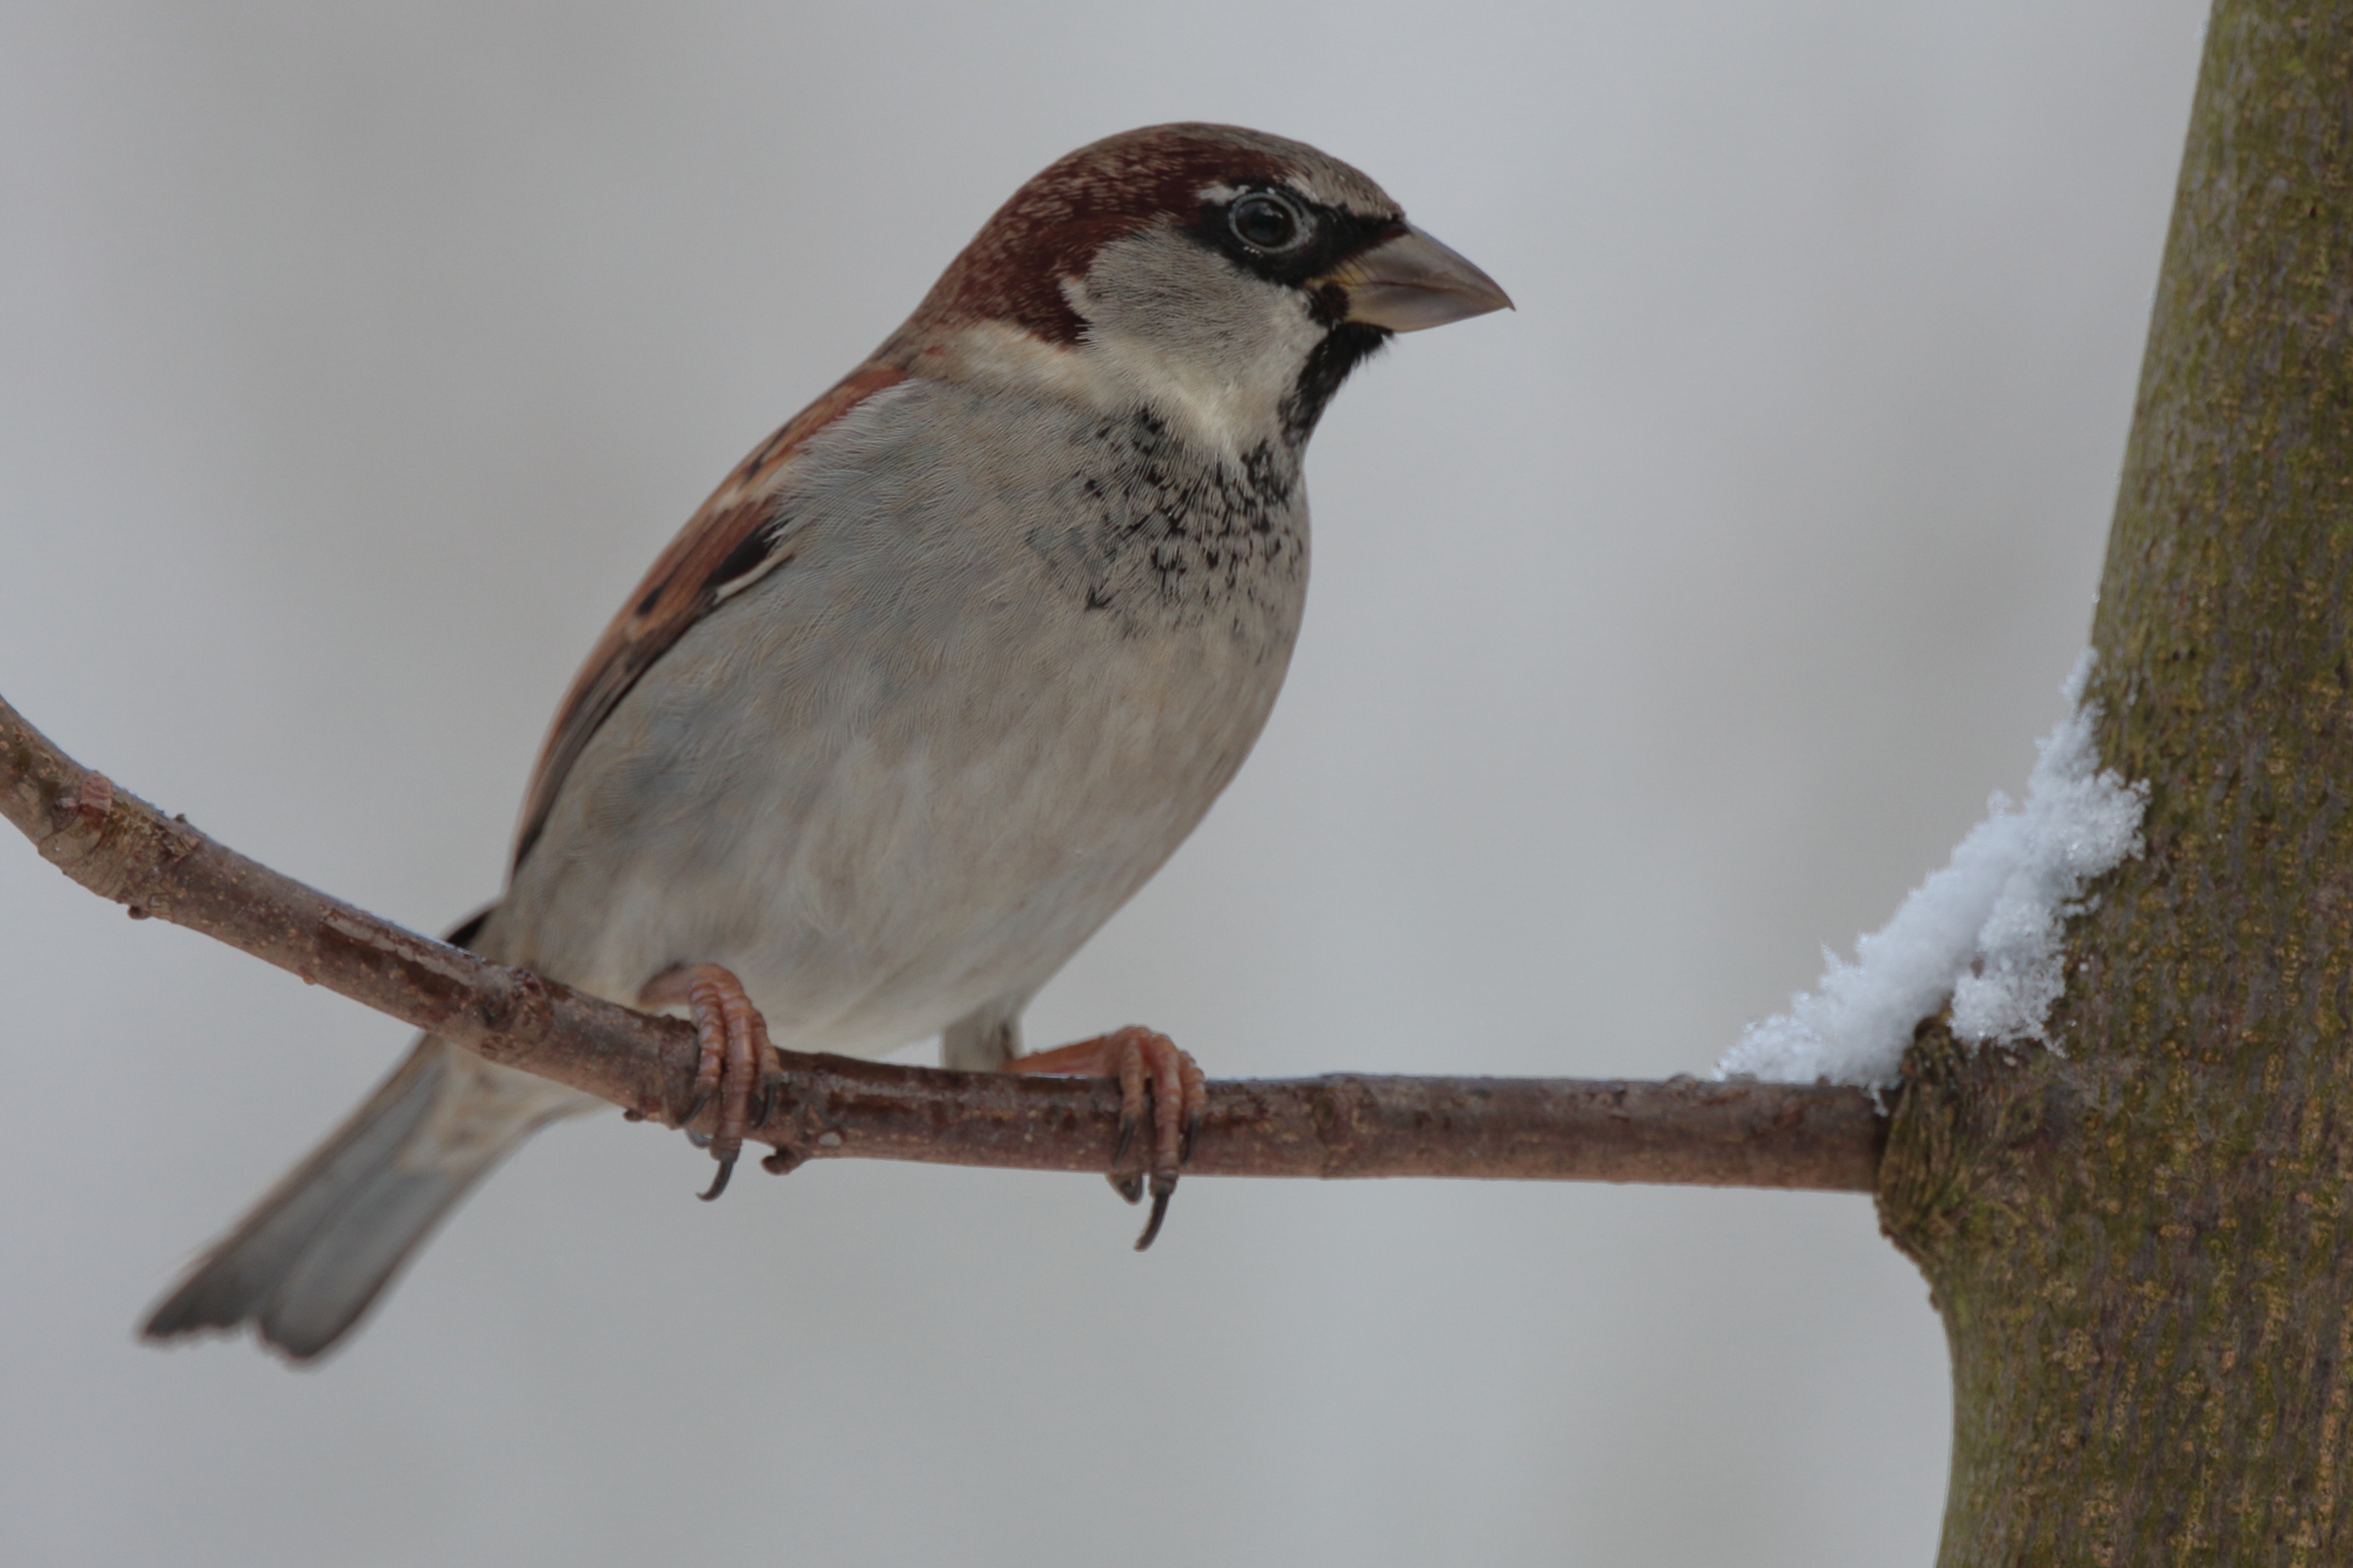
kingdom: Animalia
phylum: Chordata
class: Aves
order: Passeriformes
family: Passeridae
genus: Passer
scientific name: Passer domesticus
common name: Gråspurv
